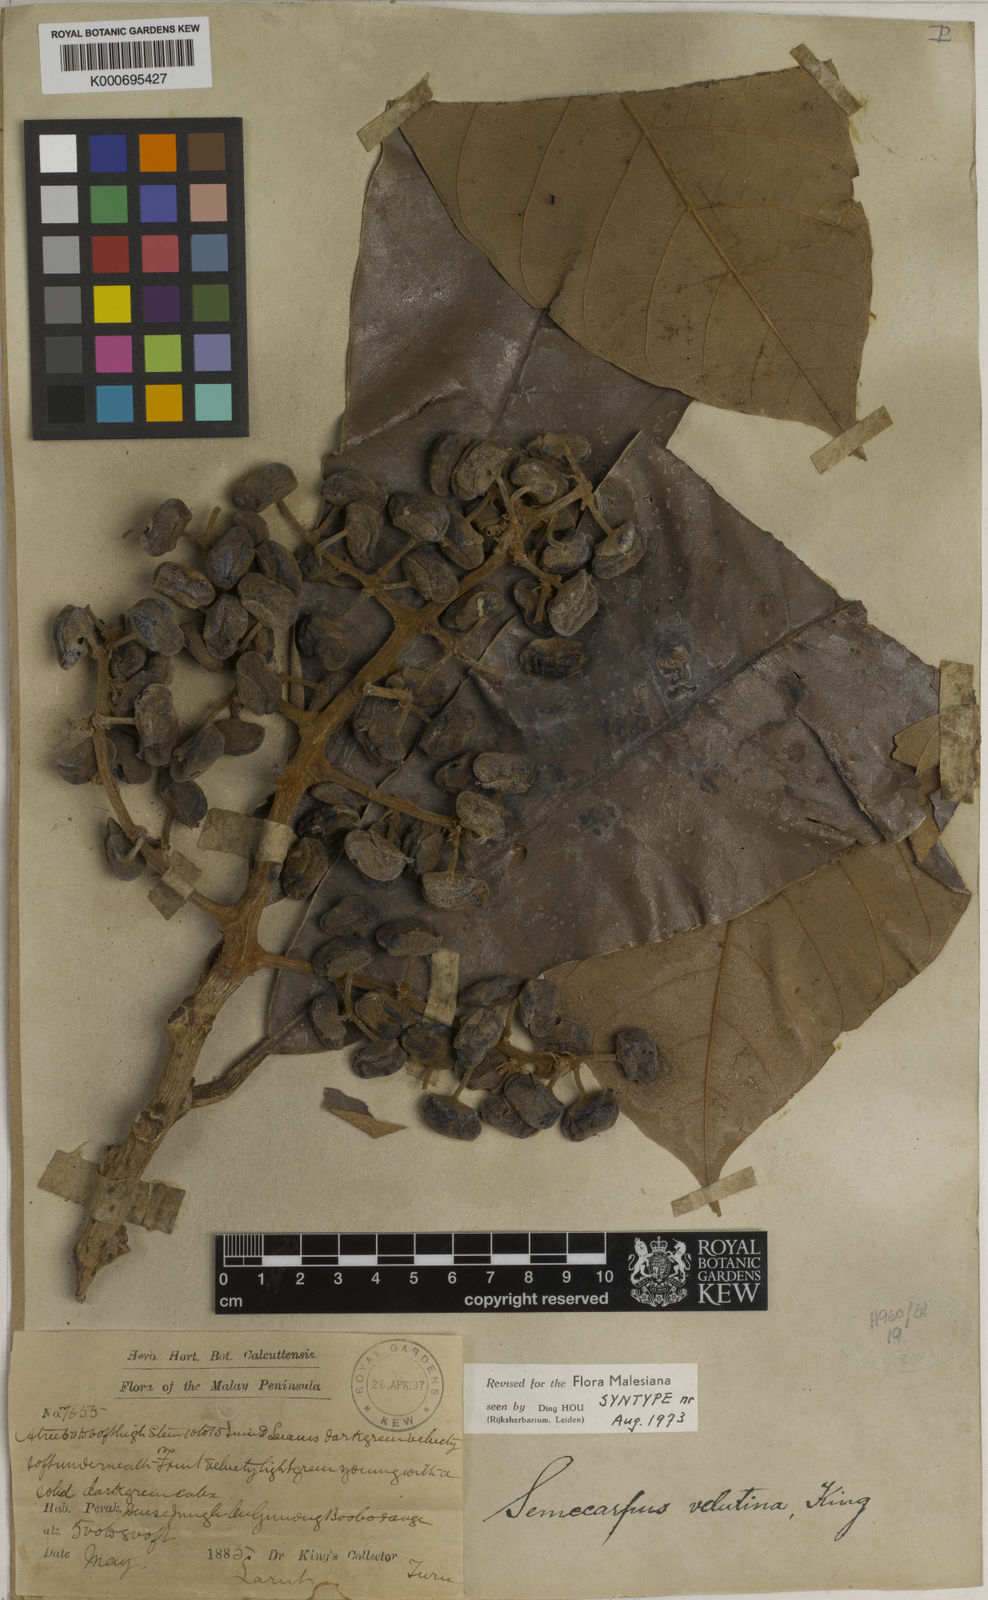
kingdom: Plantae
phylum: Tracheophyta
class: Magnoliopsida
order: Sapindales
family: Anacardiaceae
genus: Semecarpus
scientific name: Semecarpus velutinus
